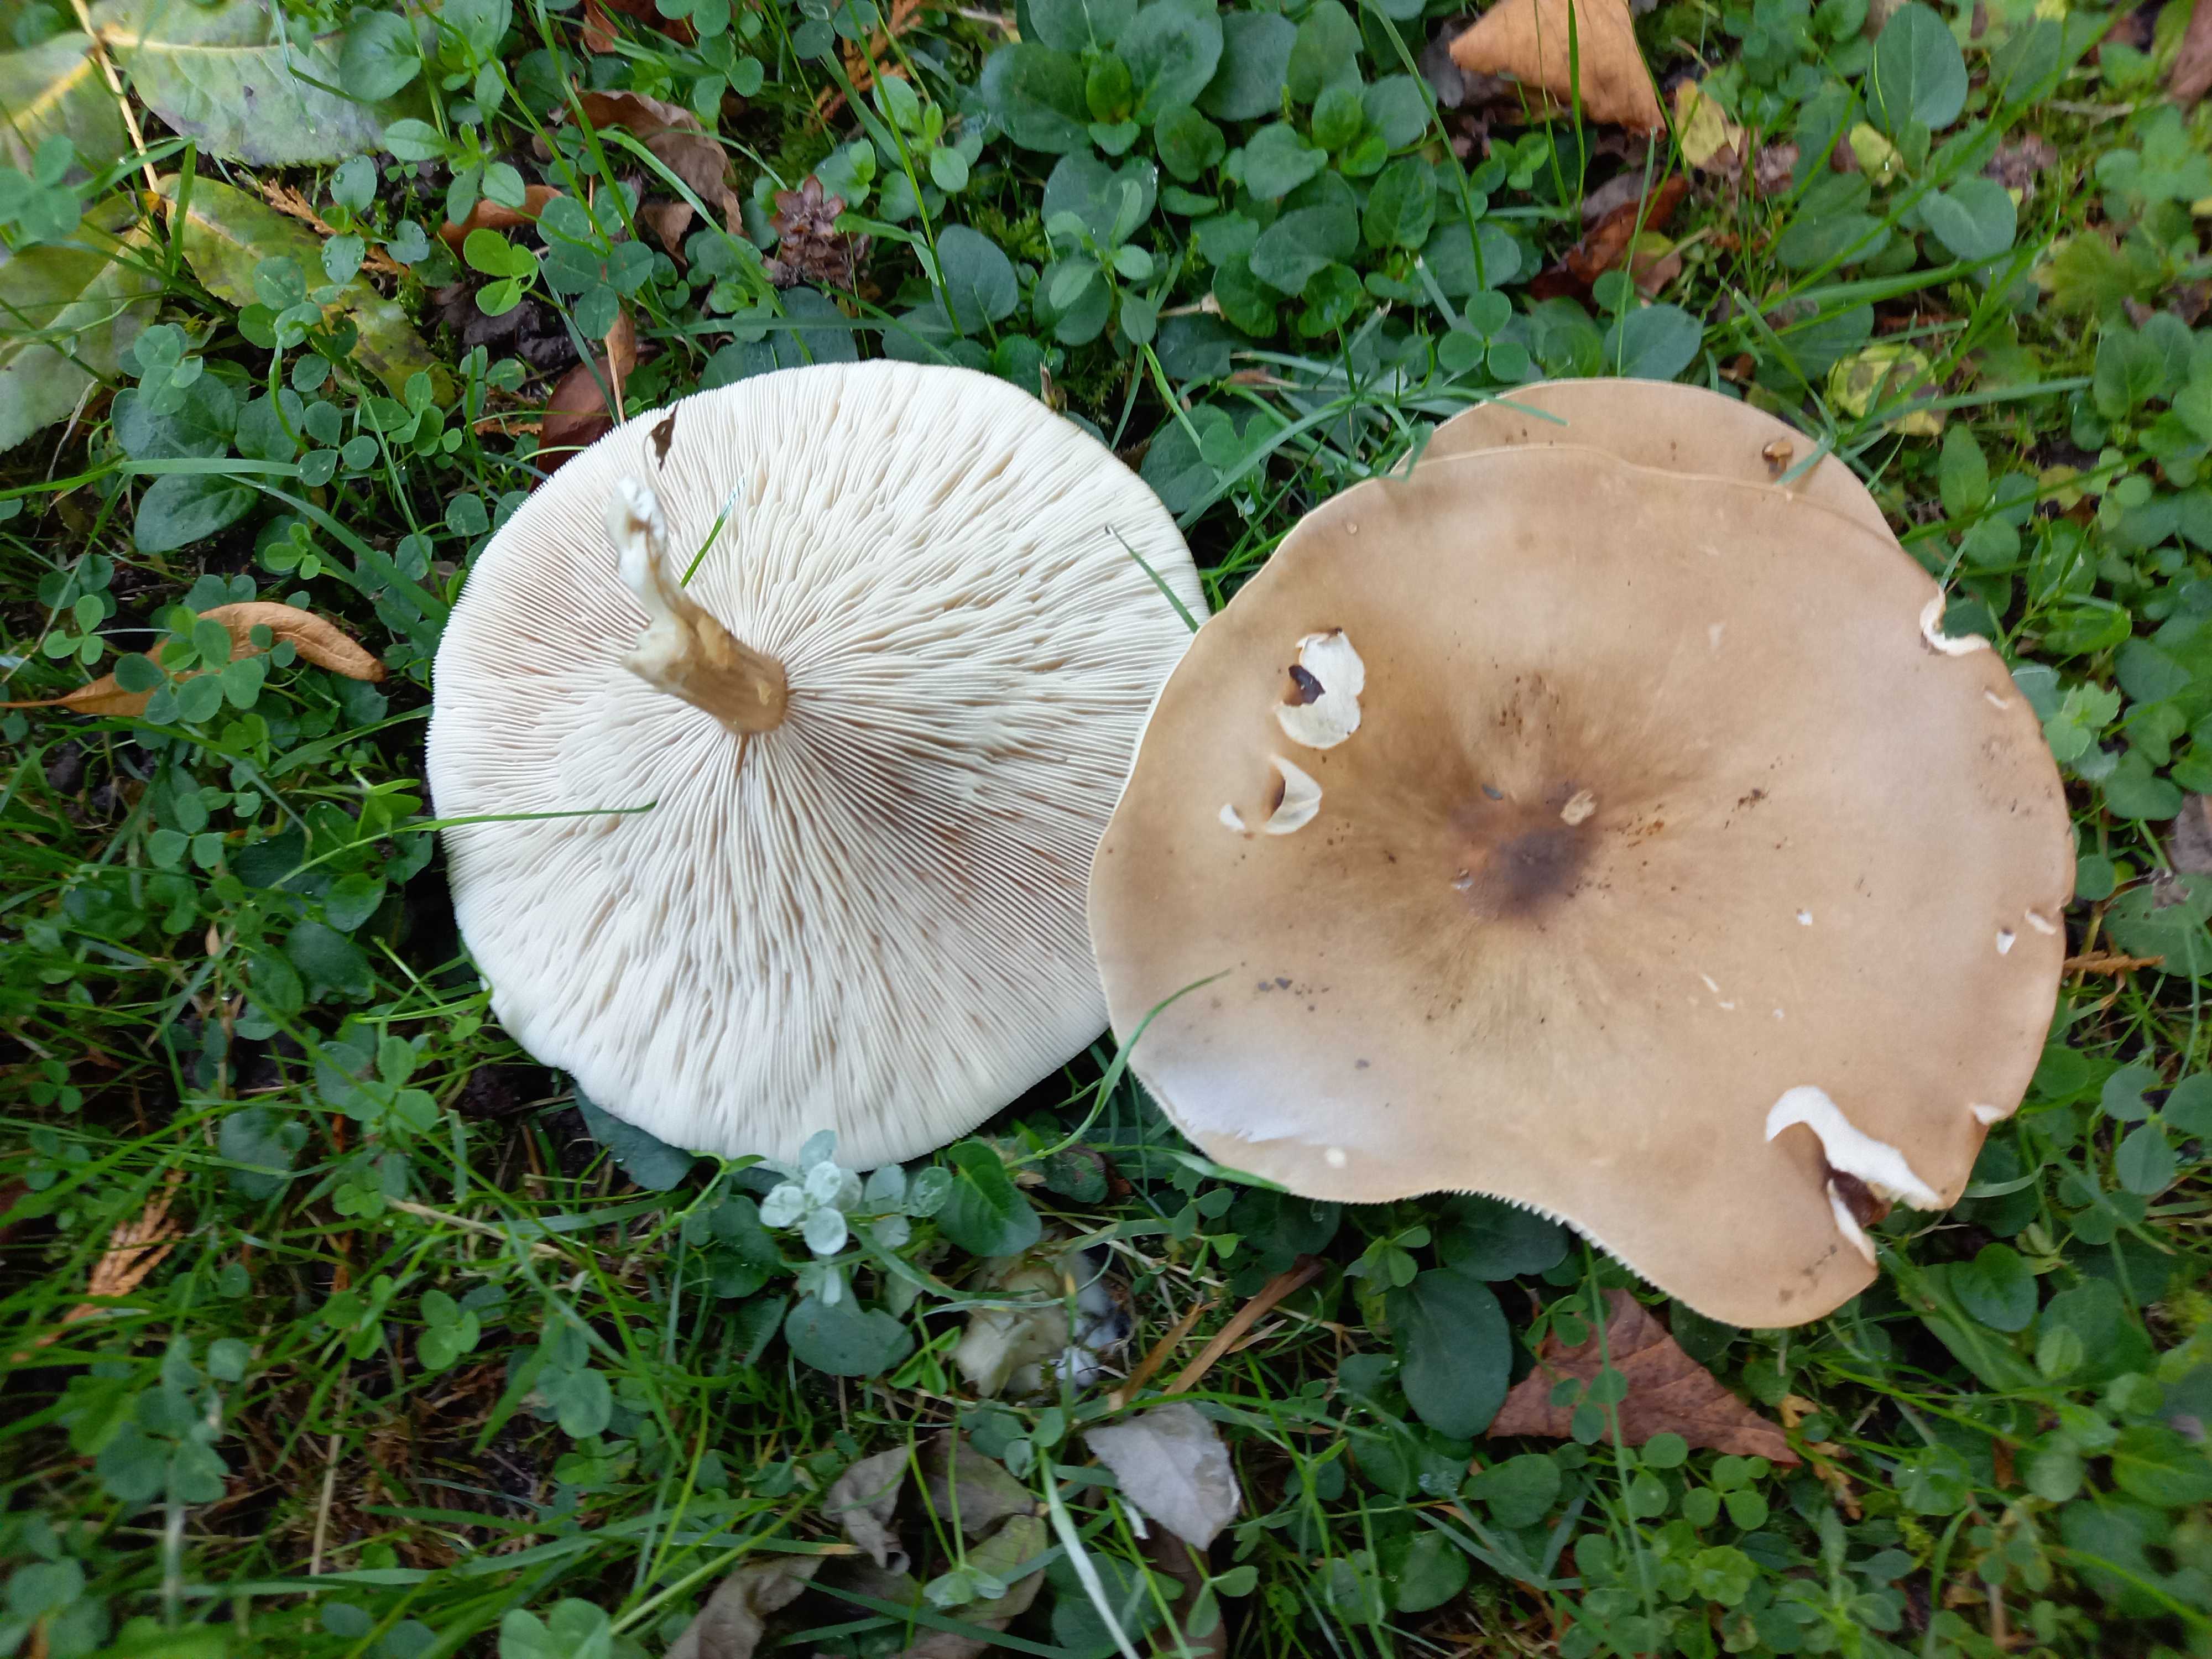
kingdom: Fungi
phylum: Basidiomycota
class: Agaricomycetes
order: Agaricales
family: Tricholomataceae
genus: Melanoleuca
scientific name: Melanoleuca grammopodia
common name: stribestokket munkehat
